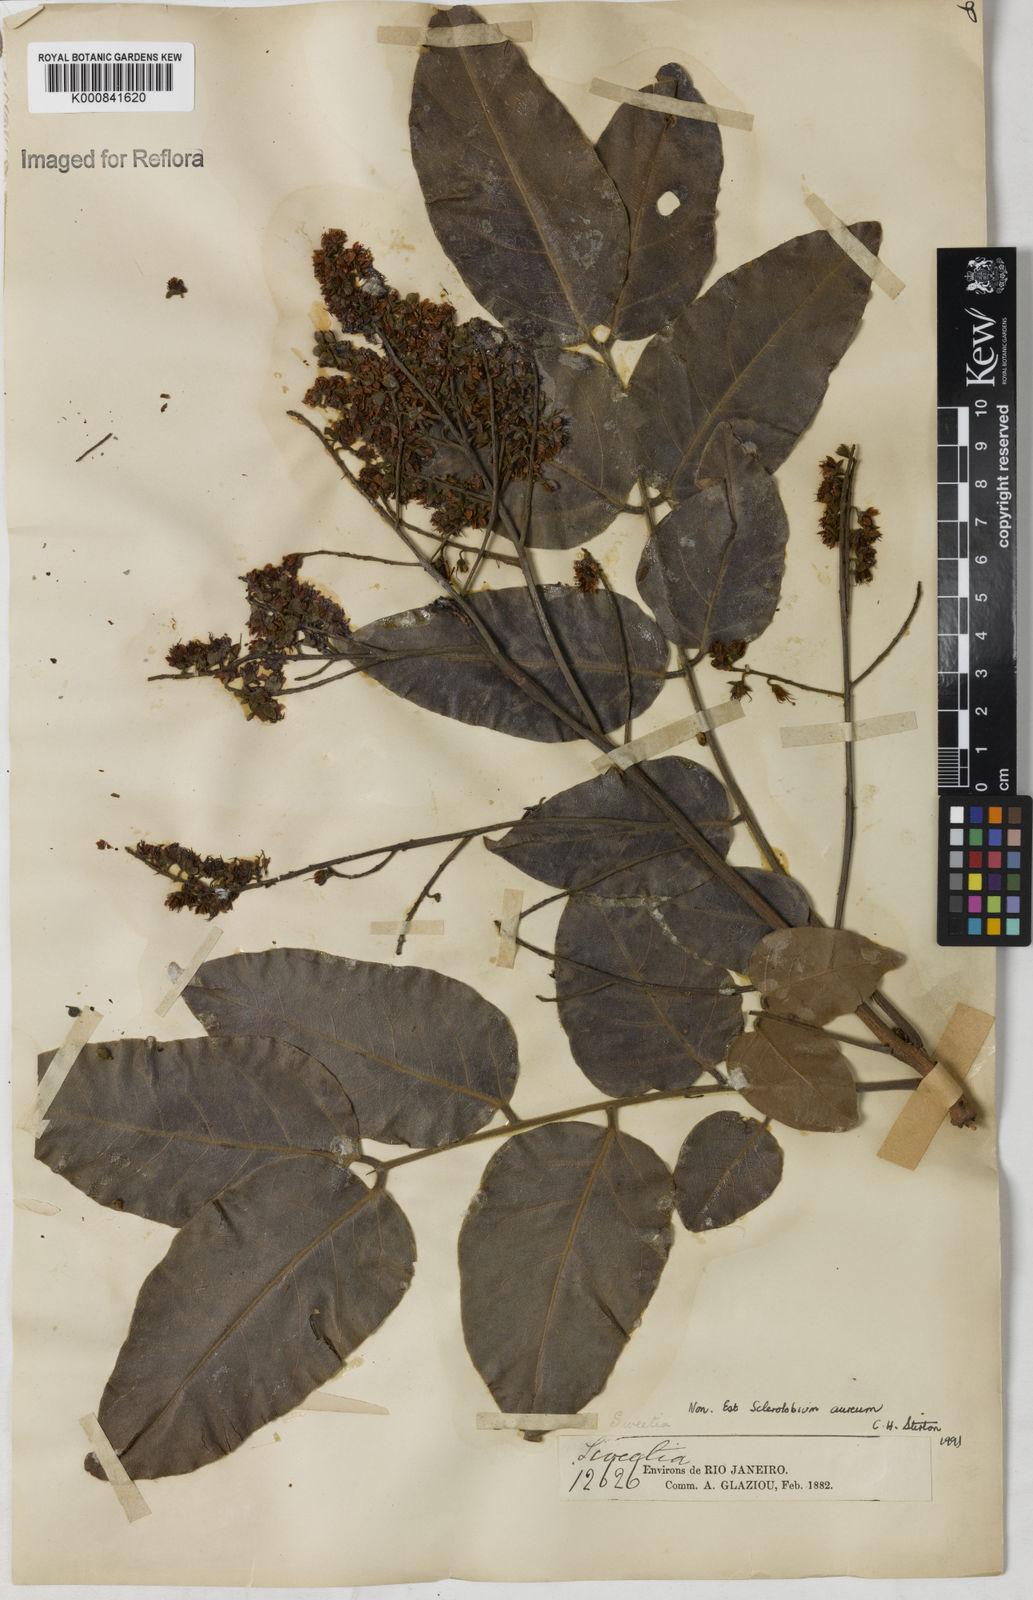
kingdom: Plantae
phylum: Tracheophyta
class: Magnoliopsida
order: Fabales
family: Fabaceae
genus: Tachigali
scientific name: Tachigali aurea
